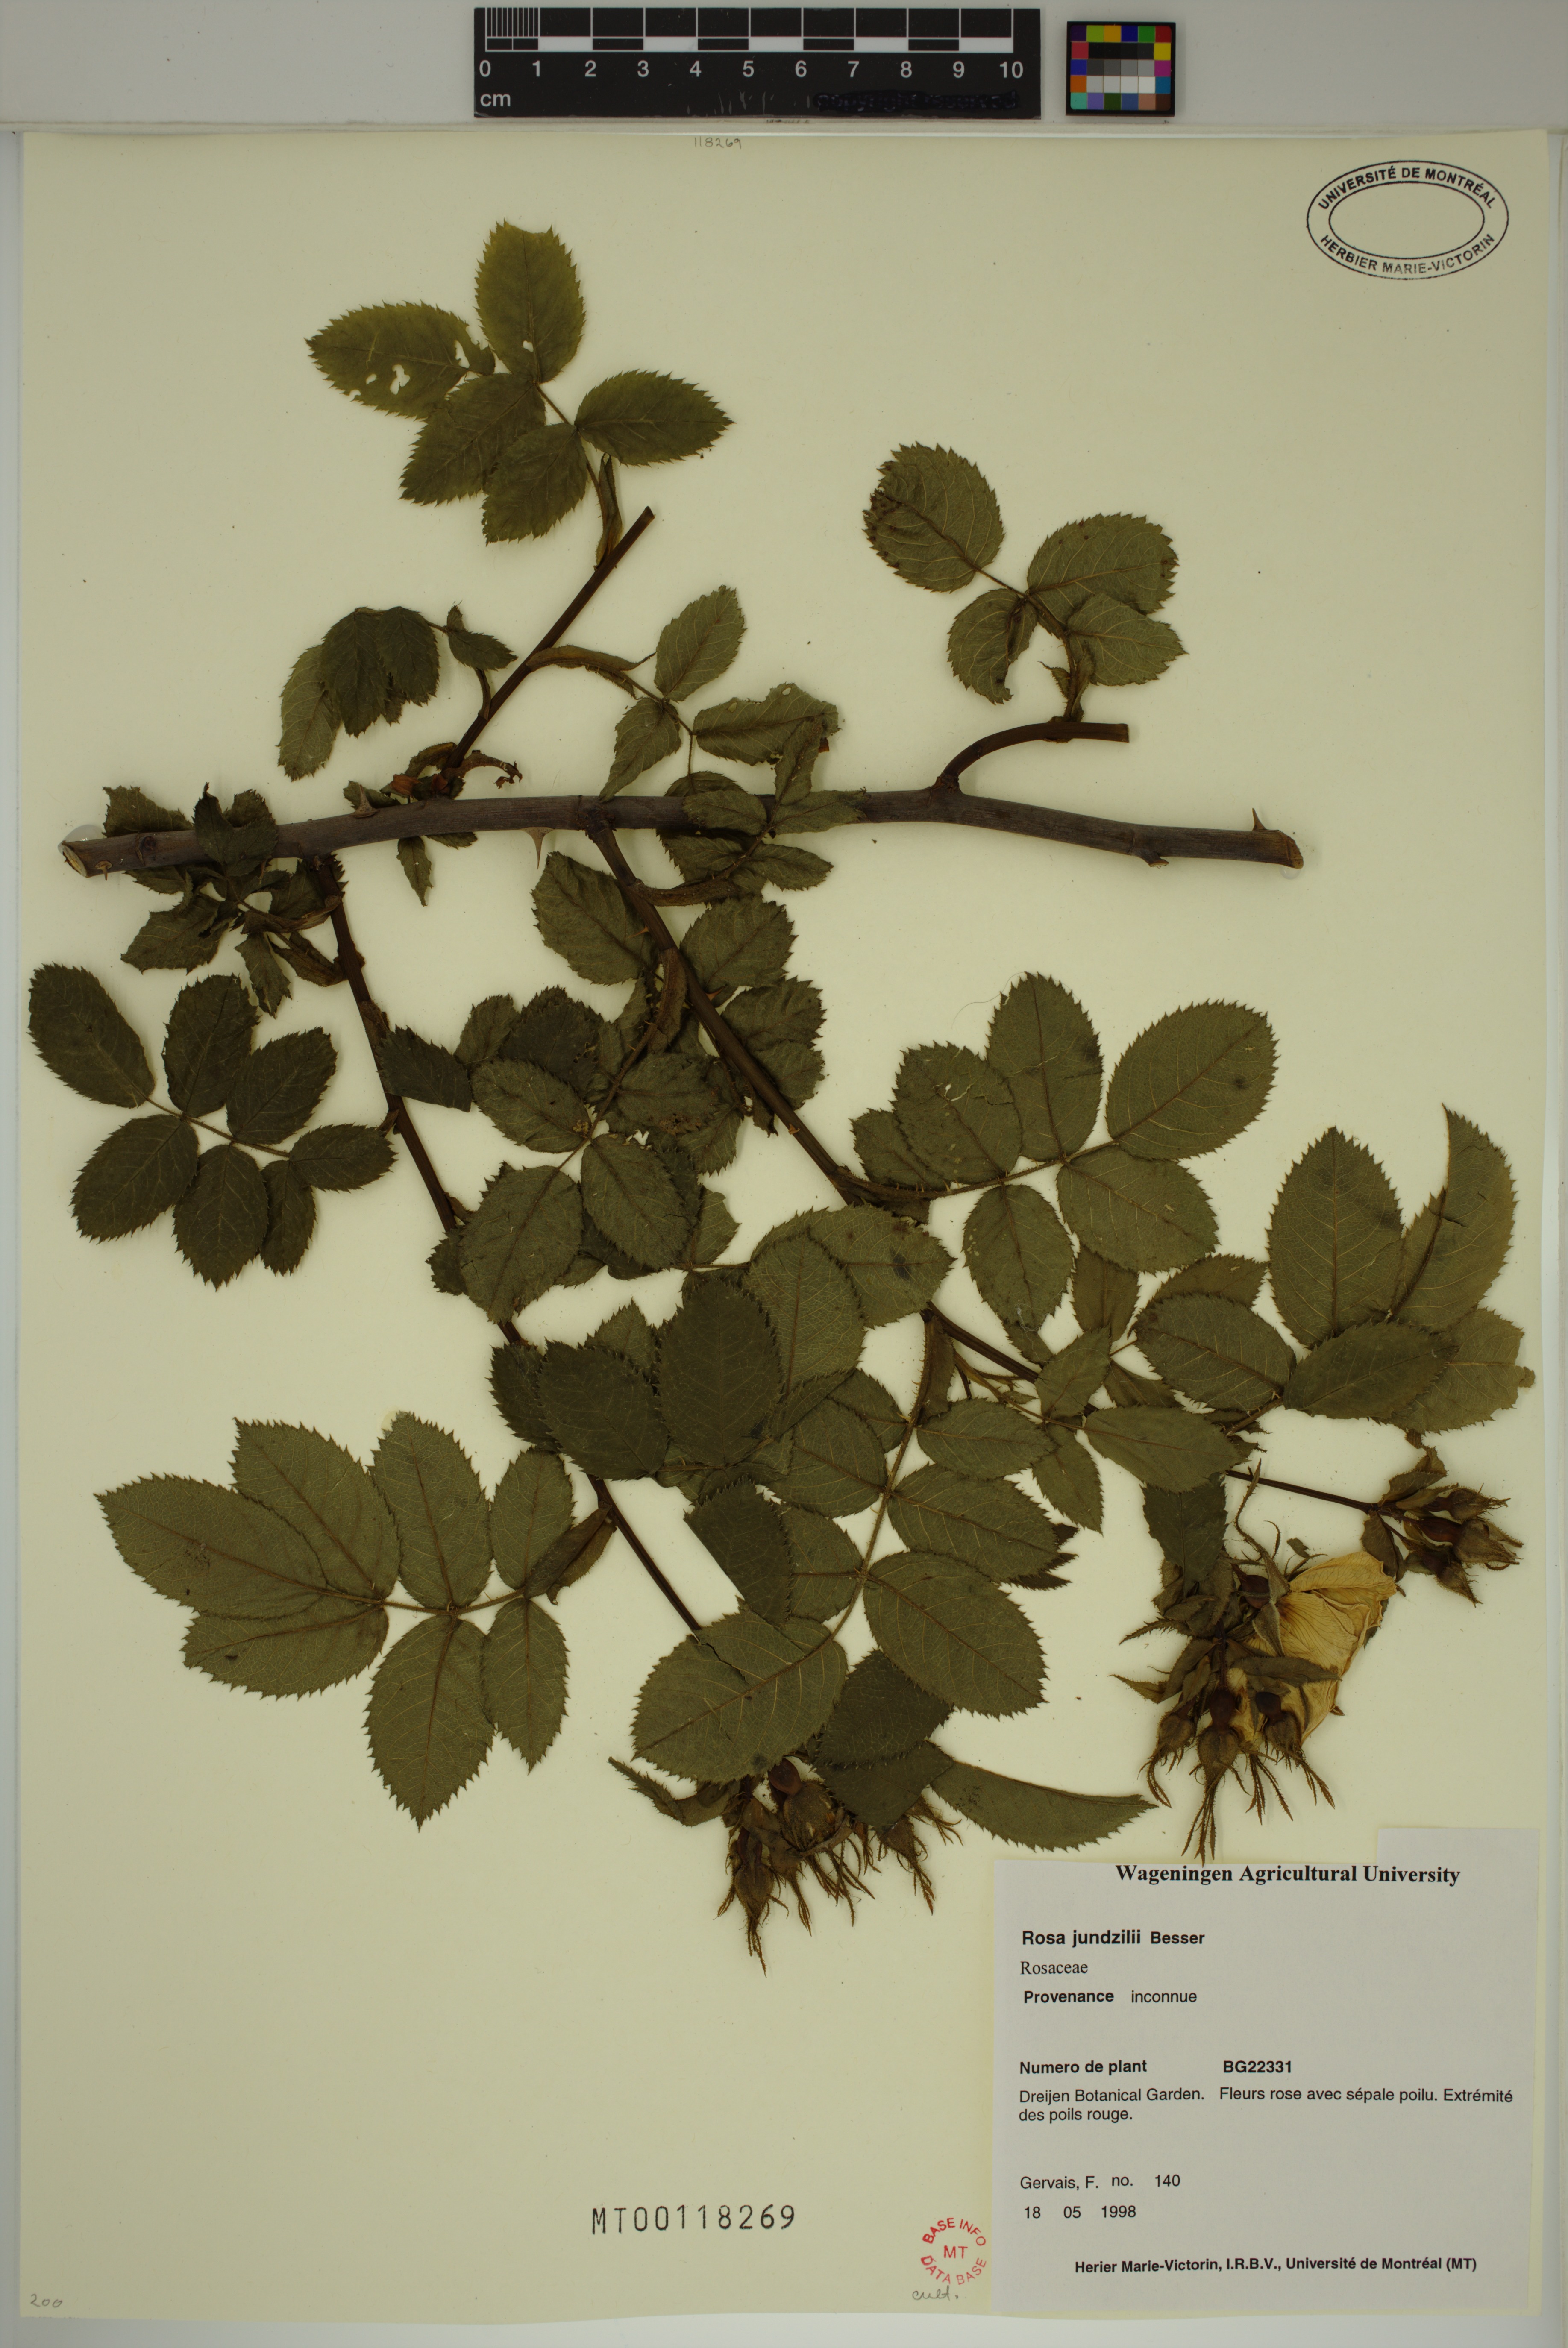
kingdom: Plantae
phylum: Tracheophyta
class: Magnoliopsida
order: Rosales
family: Rosaceae
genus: Rosa
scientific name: Rosa marginata
